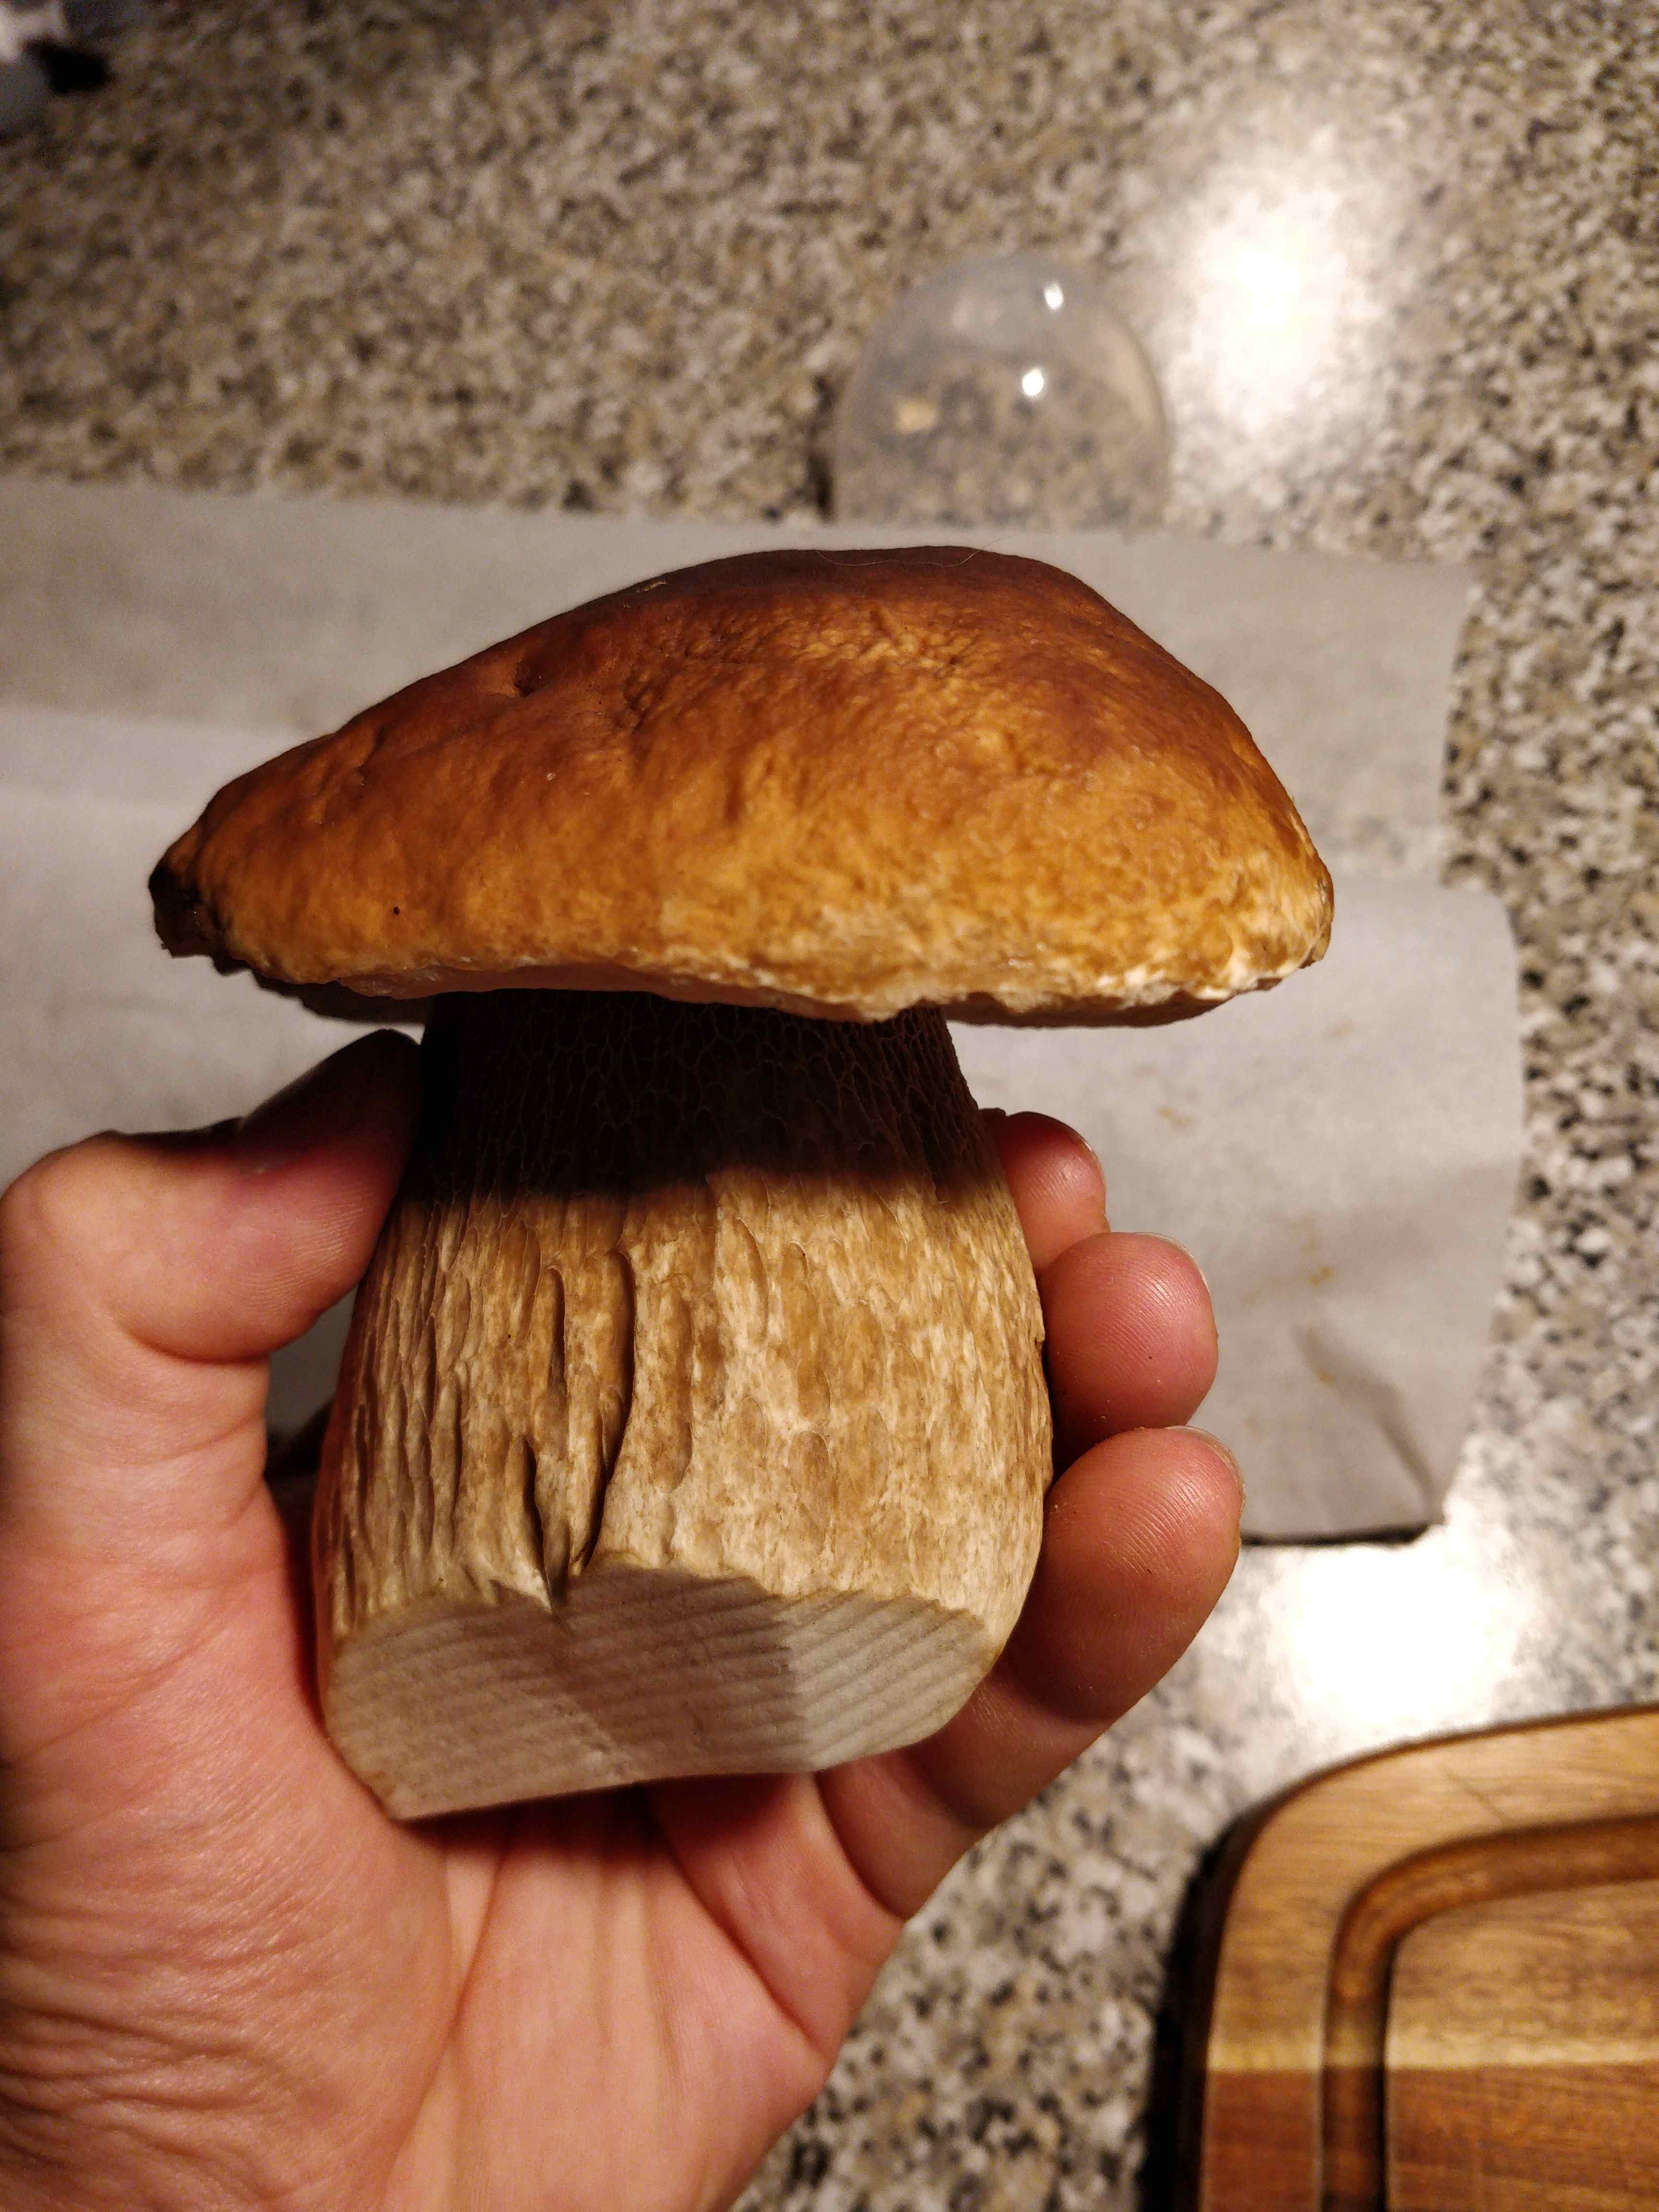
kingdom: Fungi
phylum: Basidiomycota
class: Agaricomycetes
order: Boletales
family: Boletaceae
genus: Boletus
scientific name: Boletus edulis
